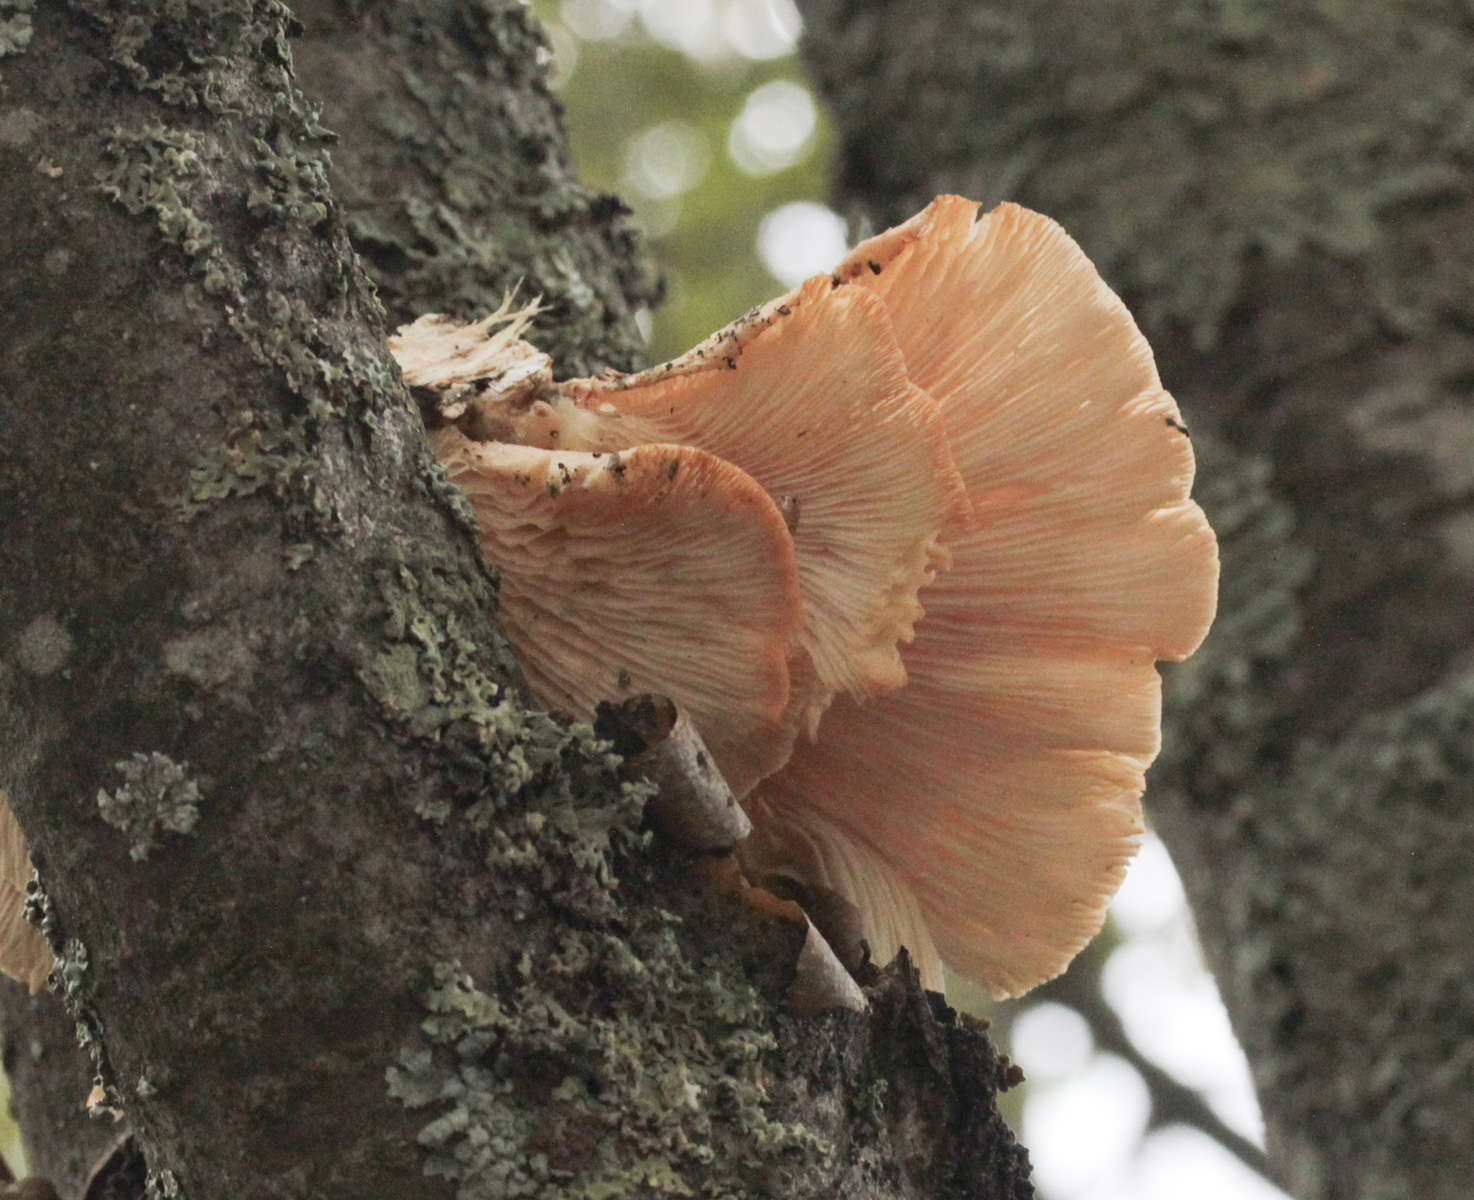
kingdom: Fungi
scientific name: Fungi
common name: Fungi
